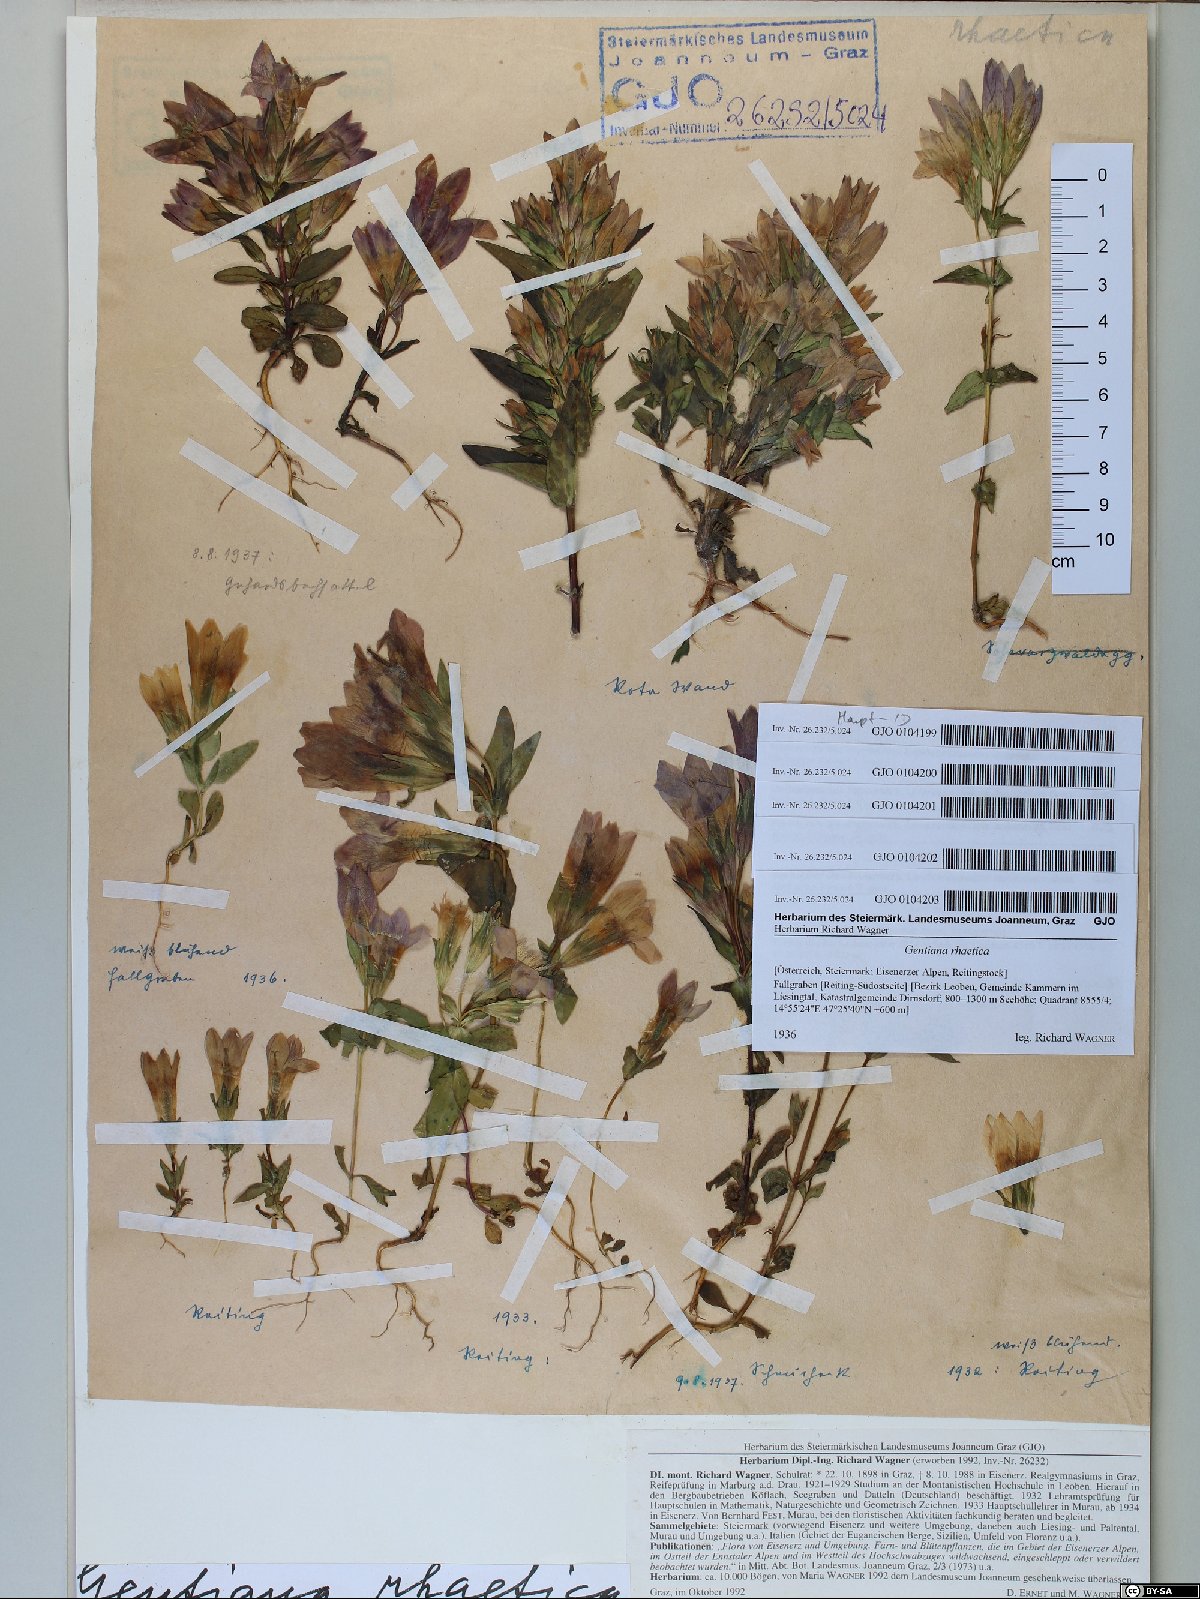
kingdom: Plantae
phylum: Tracheophyta
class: Magnoliopsida
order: Gentianales
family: Gentianaceae
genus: Gentianella
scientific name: Gentianella rhaetica
